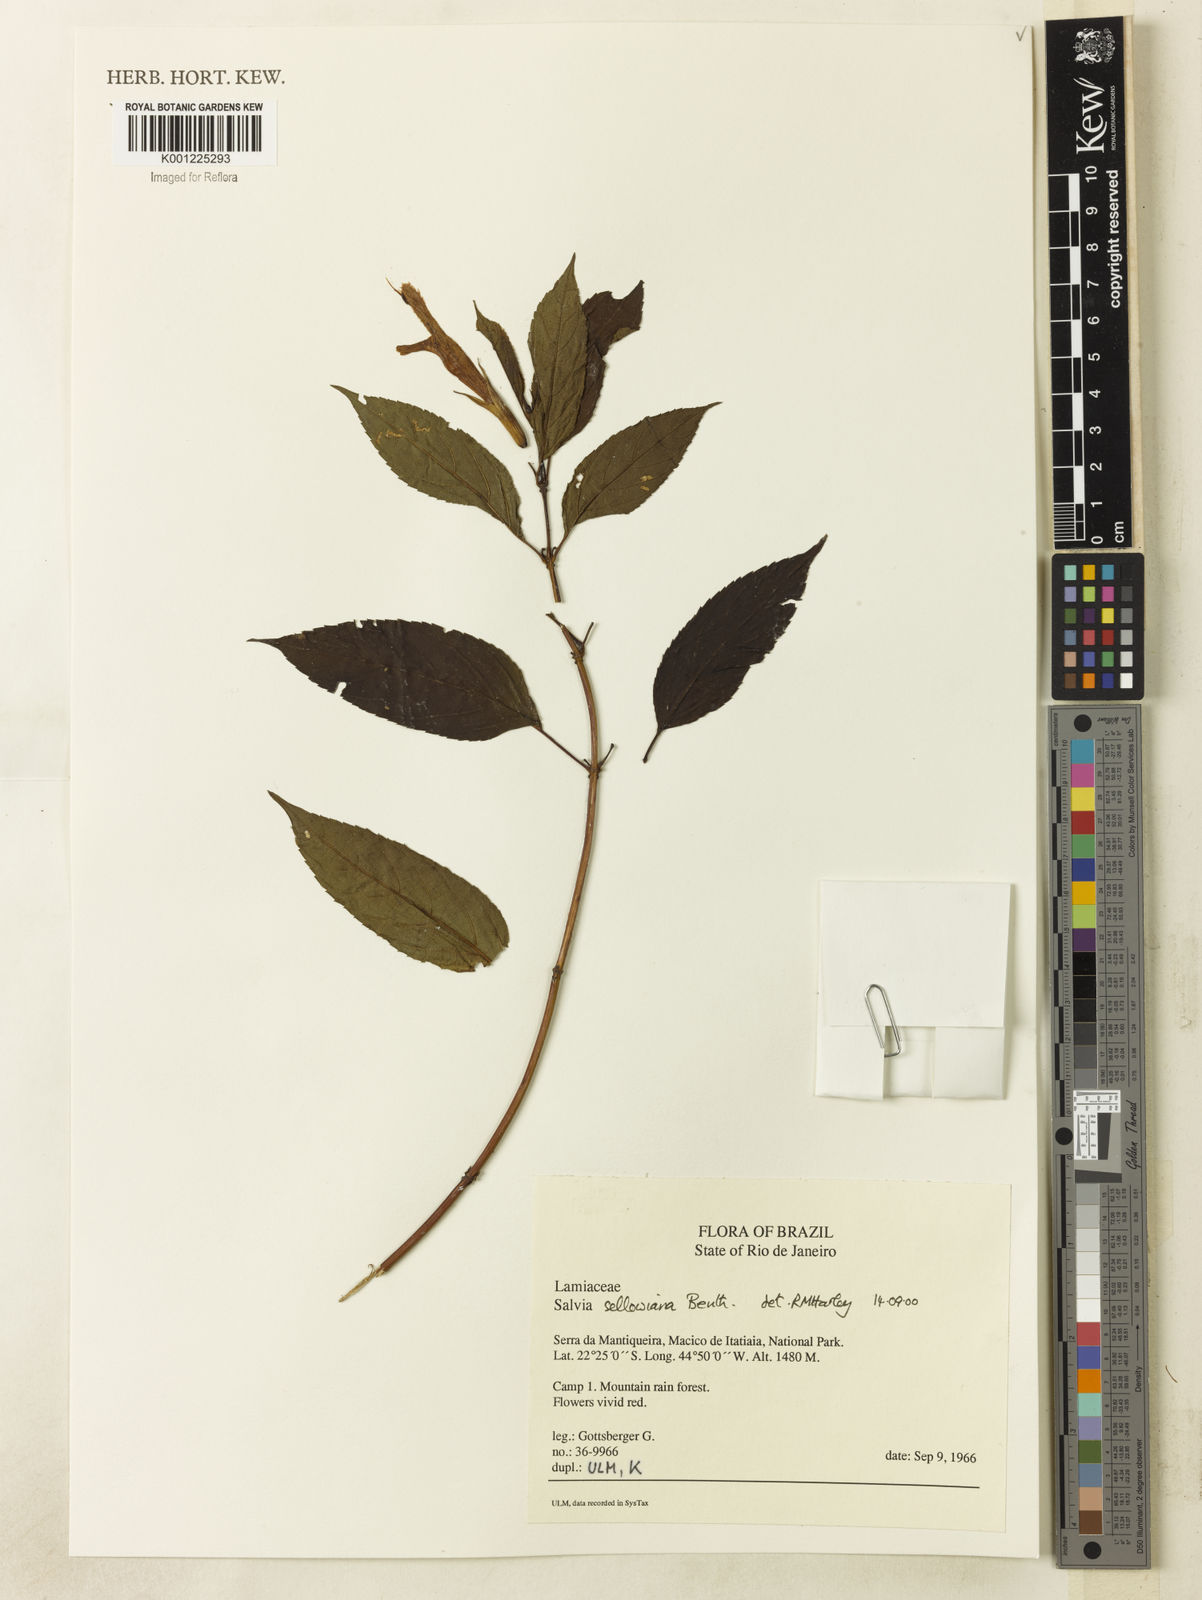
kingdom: Plantae
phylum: Tracheophyta
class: Magnoliopsida
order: Lamiales
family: Lamiaceae
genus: Salvia
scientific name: Salvia sellowiana
